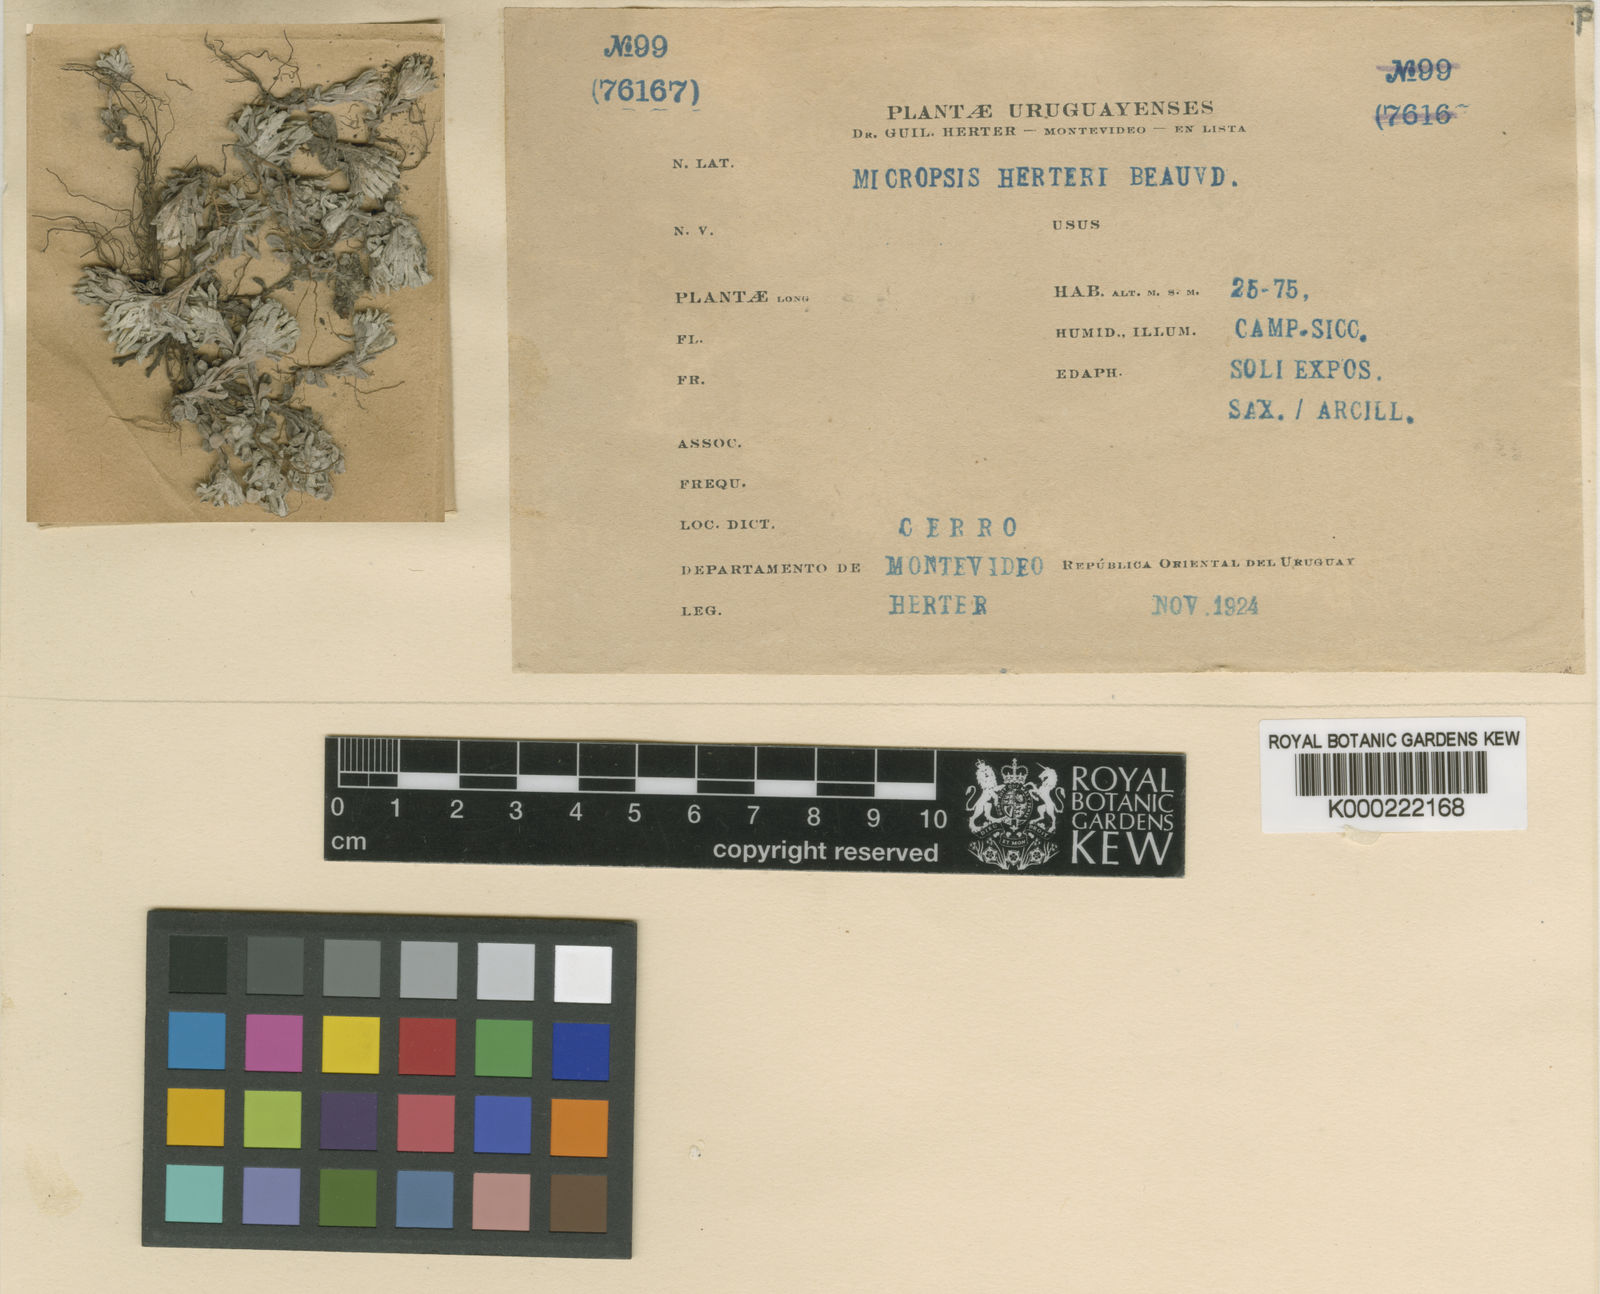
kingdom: Plantae
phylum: Tracheophyta
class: Magnoliopsida
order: Asterales
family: Asteraceae
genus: Micropsis
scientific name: Micropsis spathulata
